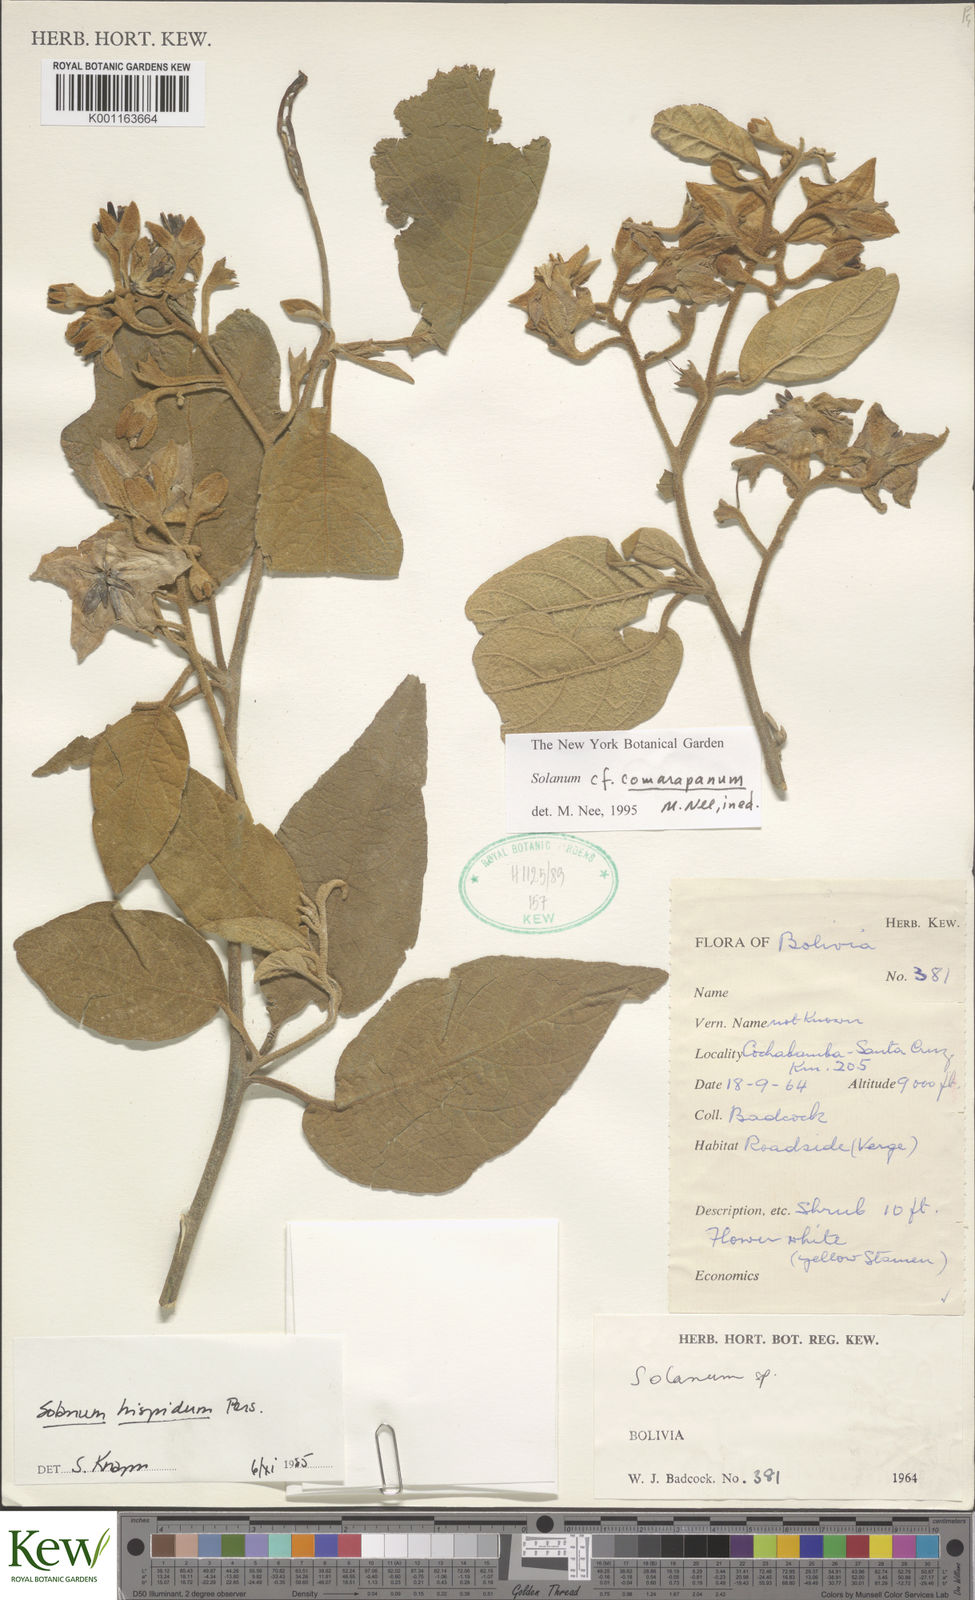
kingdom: Plantae
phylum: Tracheophyta
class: Magnoliopsida
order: Solanales
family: Solanaceae
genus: Solanum
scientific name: Solanum comarapanum
